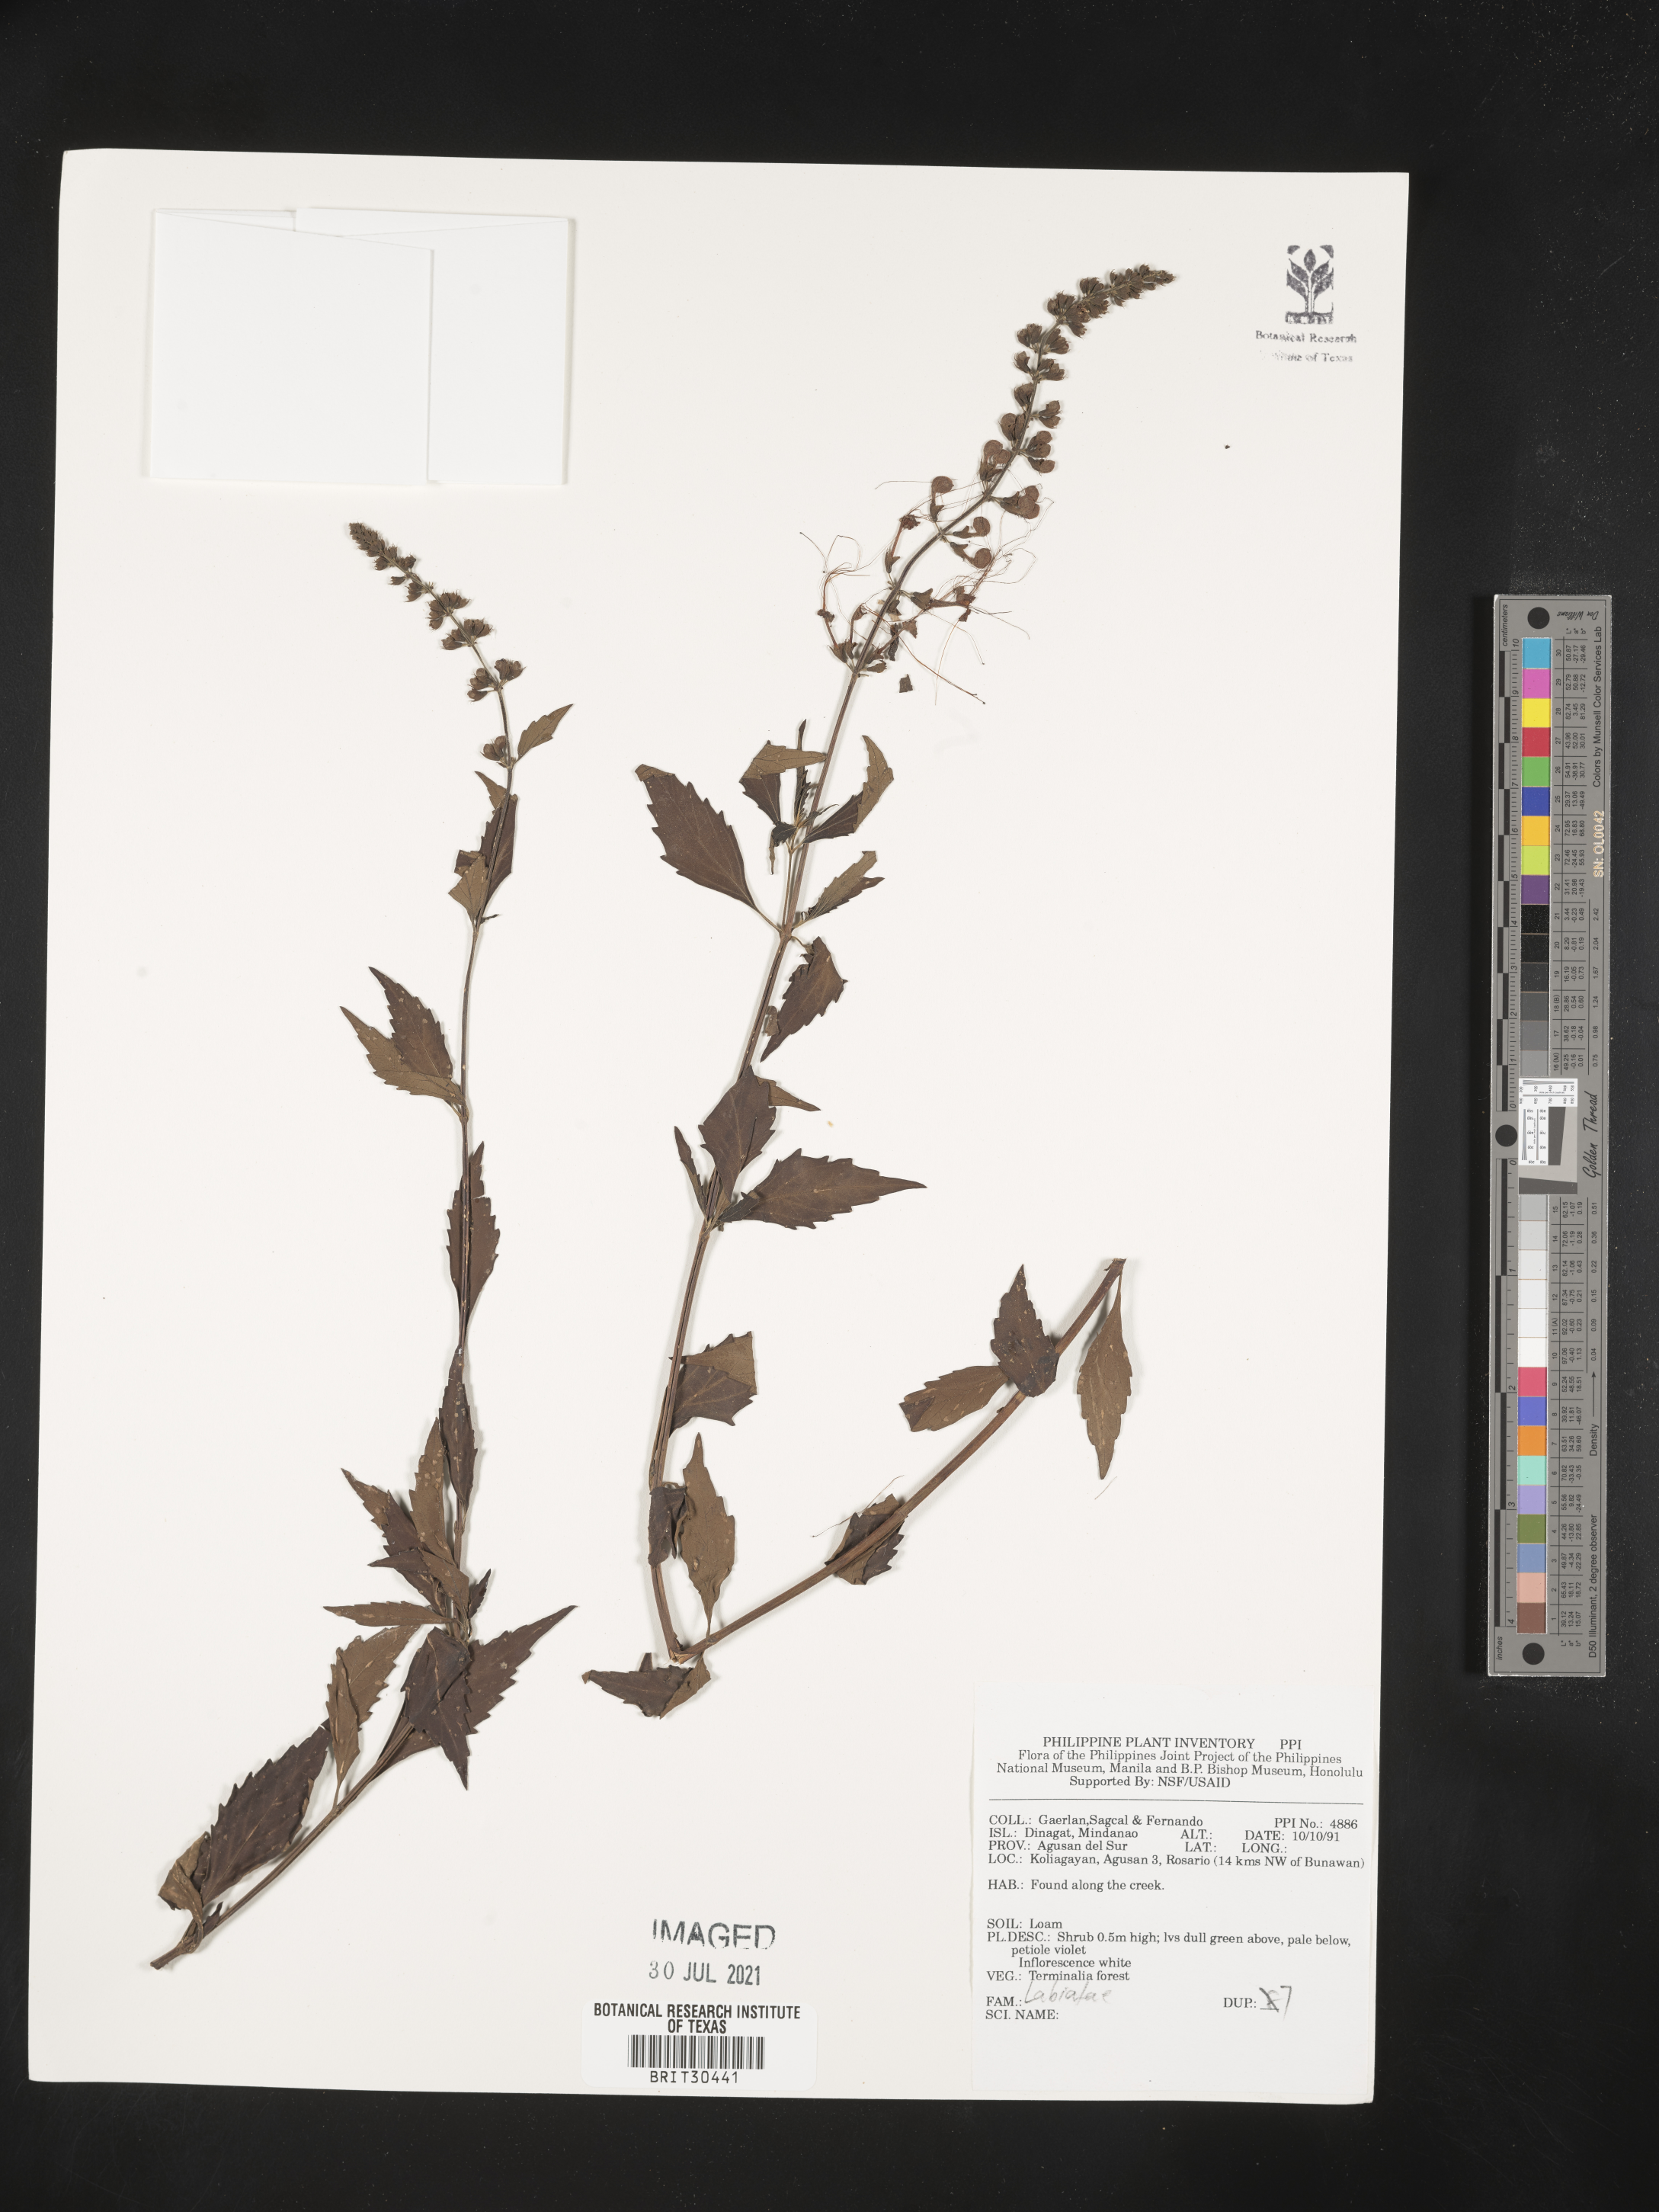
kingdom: Plantae
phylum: Tracheophyta
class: Magnoliopsida
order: Lamiales
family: Lamiaceae
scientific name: Lamiaceae
